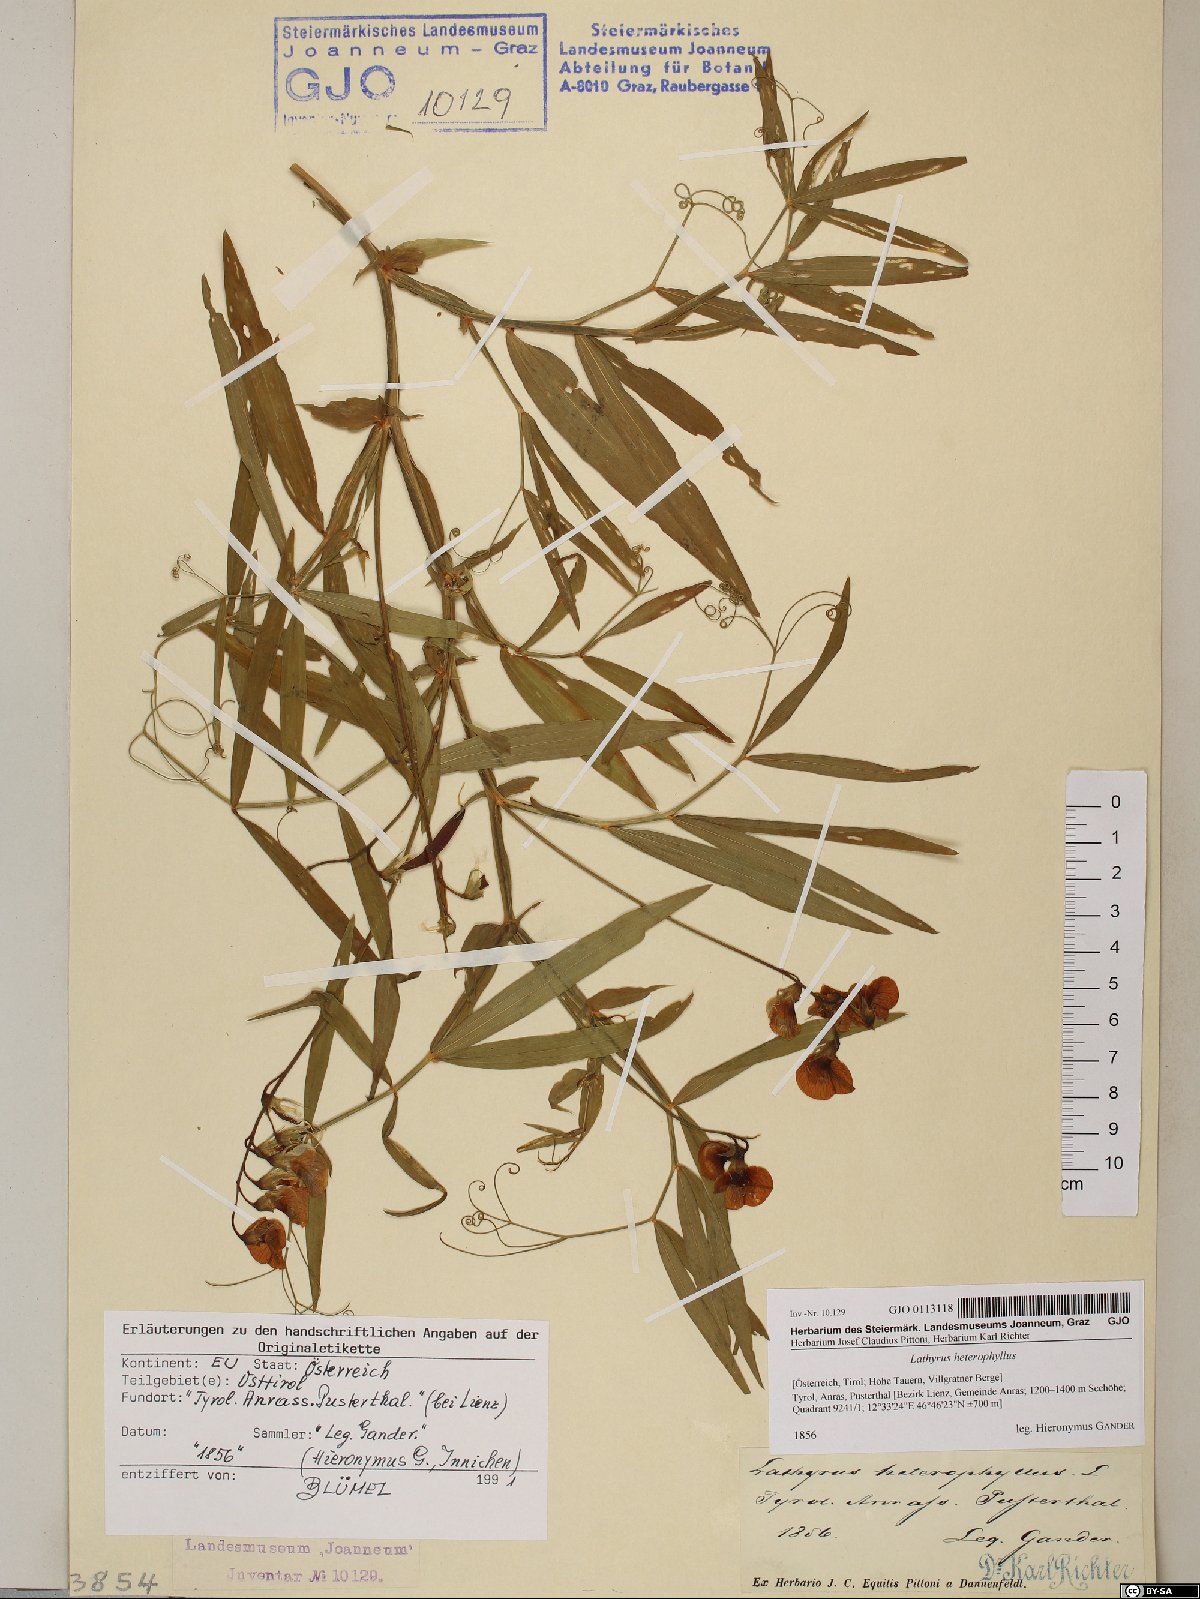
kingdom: Plantae
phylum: Tracheophyta
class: Magnoliopsida
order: Fabales
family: Fabaceae
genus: Lathyrus
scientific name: Lathyrus heterophyllus
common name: Norfolk everlasting-pea
